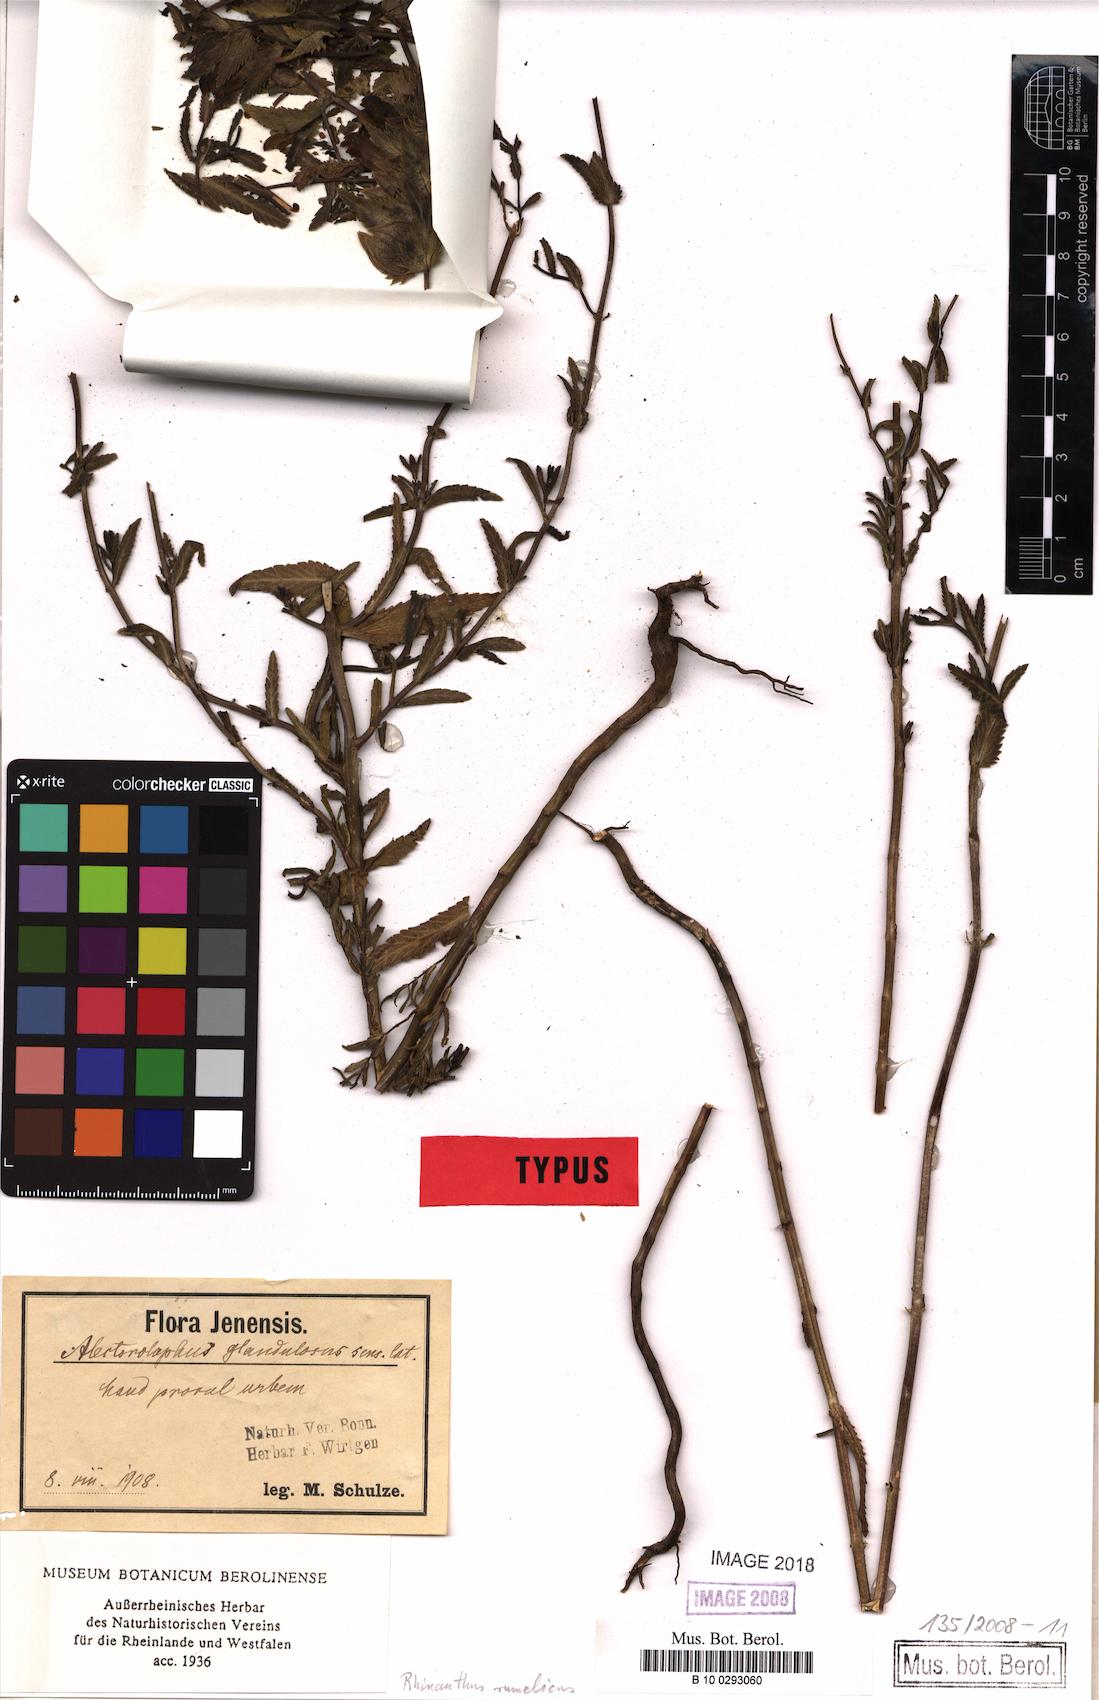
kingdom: Plantae
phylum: Tracheophyta
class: Magnoliopsida
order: Lamiales
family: Orobanchaceae
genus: Rhinanthus
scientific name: Rhinanthus rumelicus
